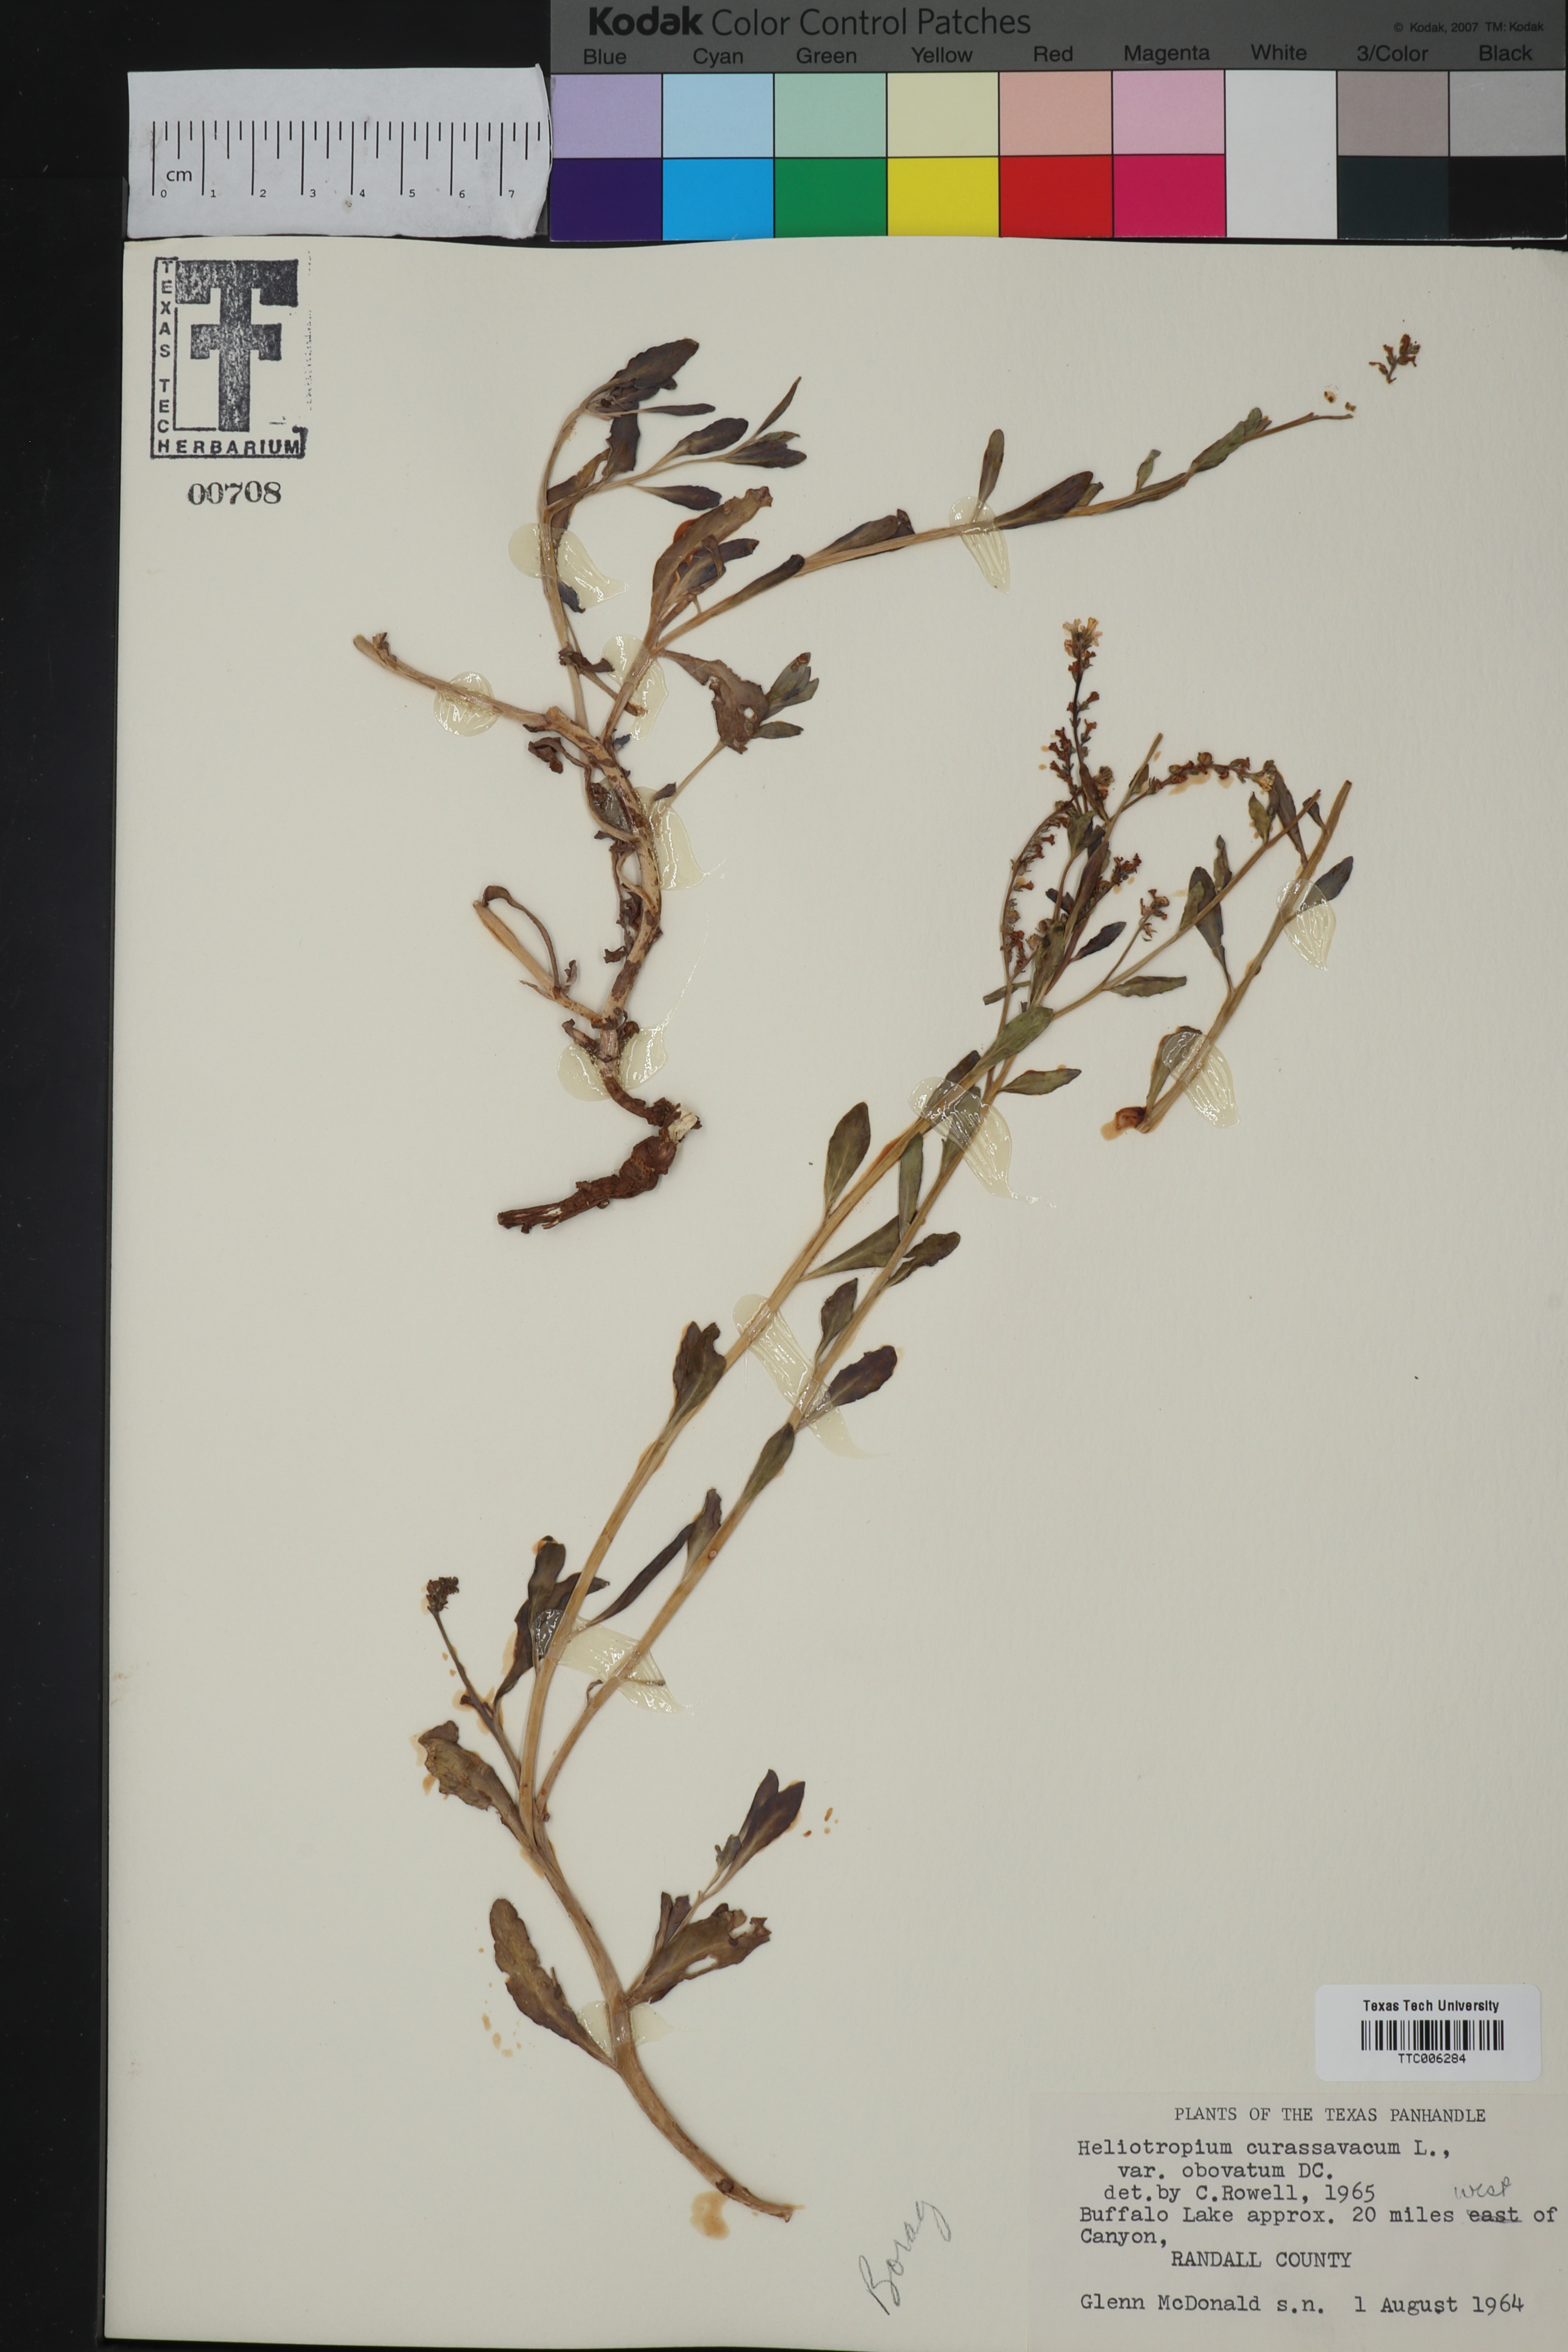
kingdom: Plantae
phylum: Tracheophyta
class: Magnoliopsida
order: Boraginales
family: Heliotropiaceae
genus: Heliotropium
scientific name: Heliotropium curassavicum
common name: Seaside heliotrope
